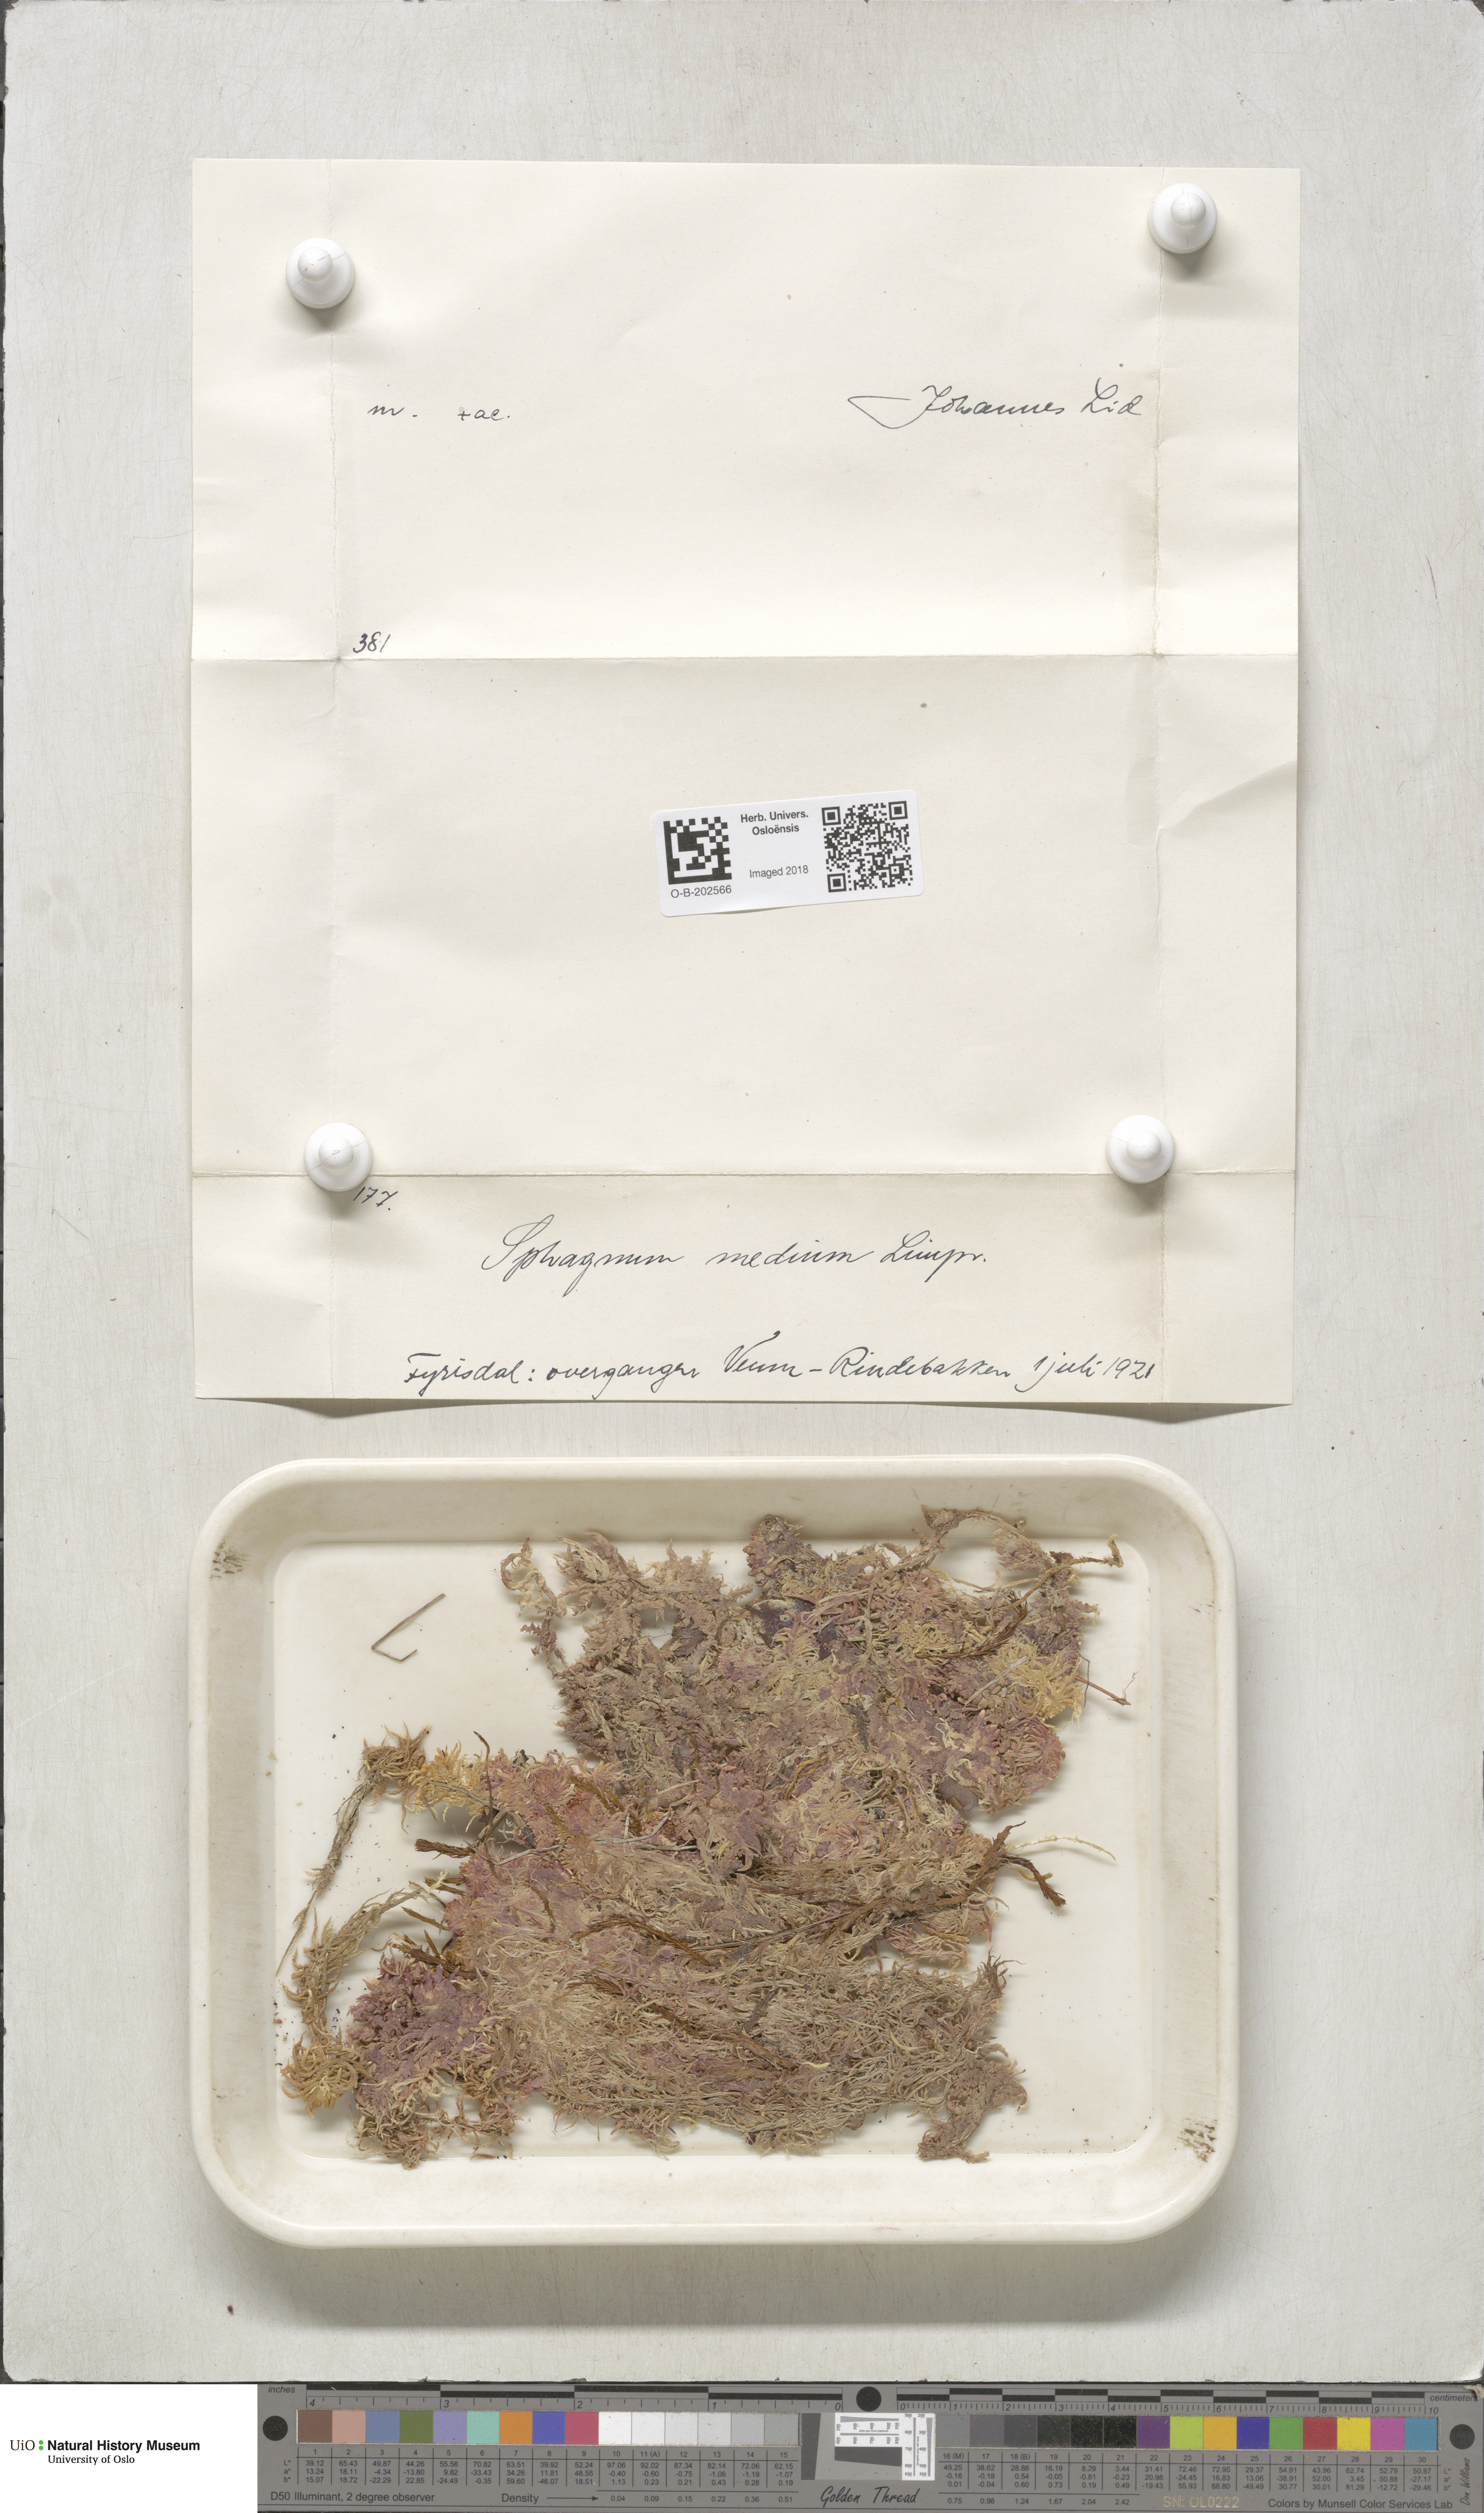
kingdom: Plantae
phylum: Bryophyta
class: Sphagnopsida
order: Sphagnales
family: Sphagnaceae
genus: Sphagnum
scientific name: Sphagnum magellanicum
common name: Magellan's peat moss
